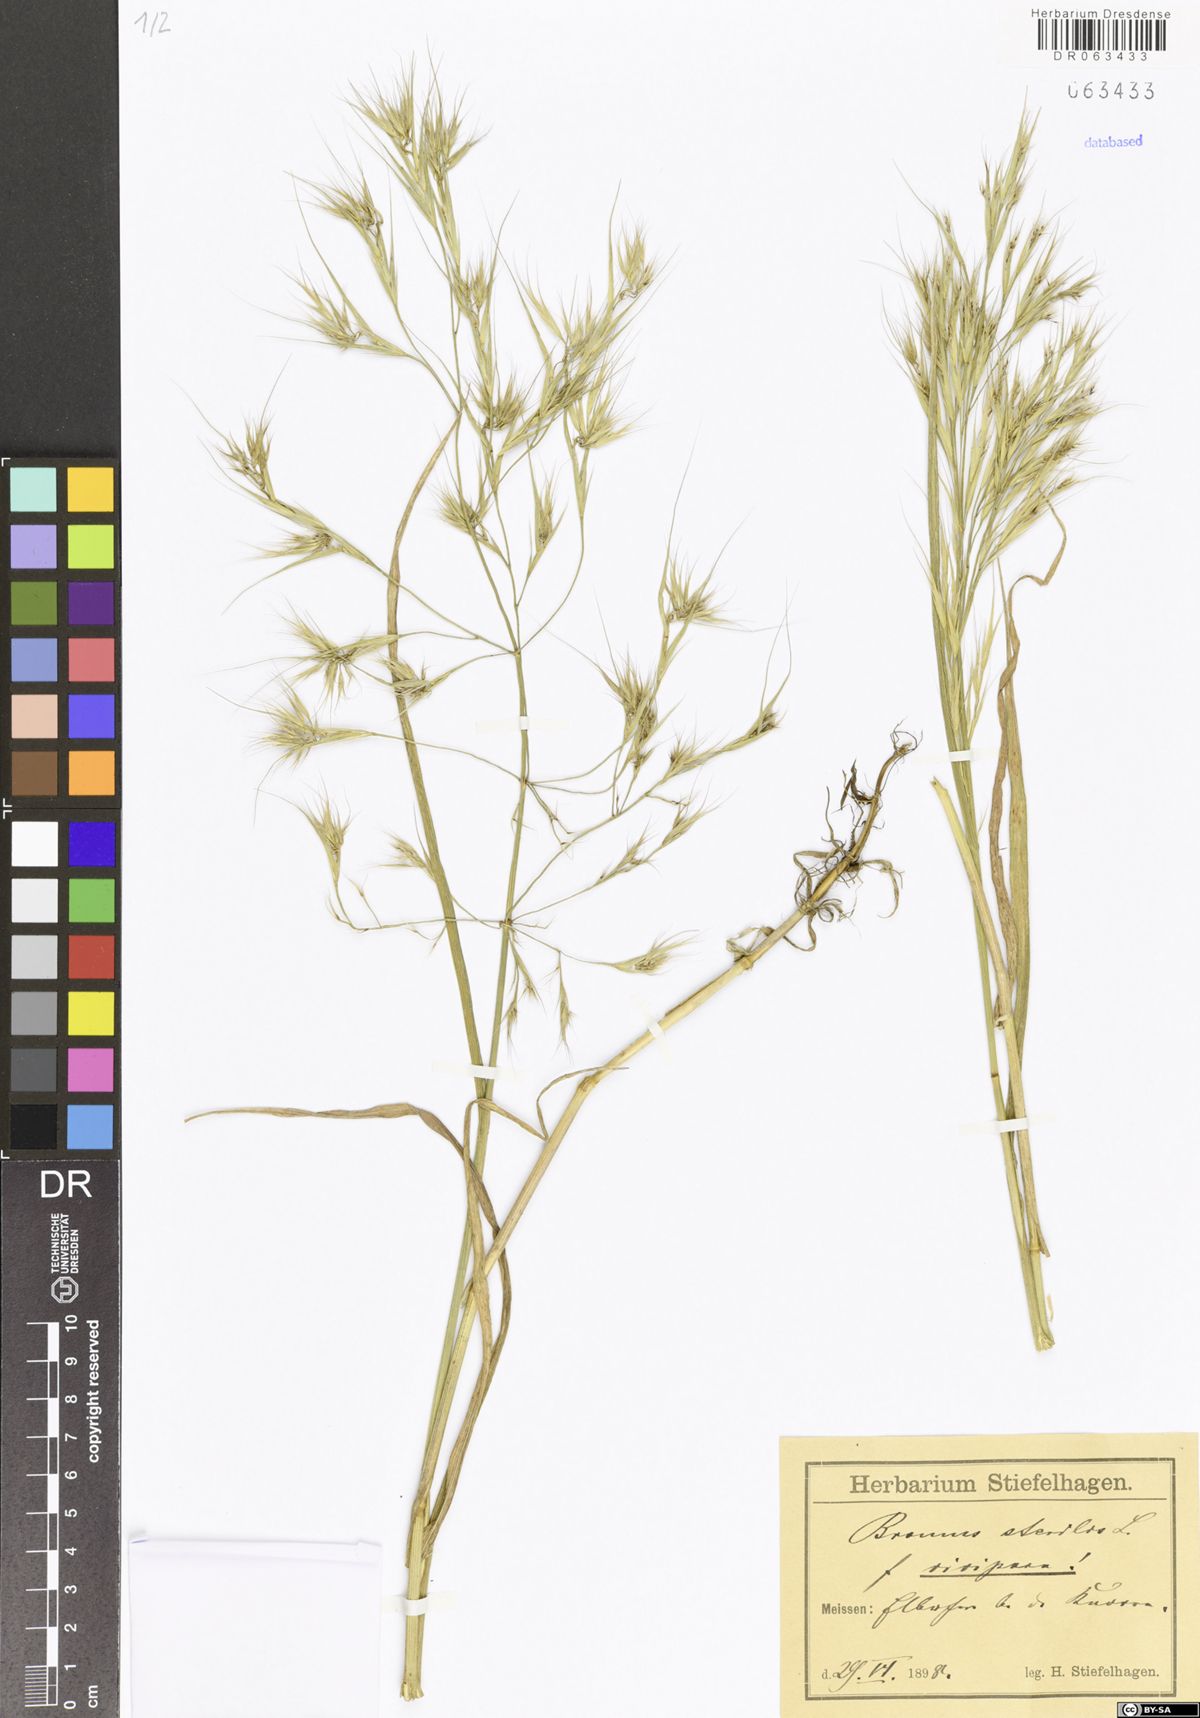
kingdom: Plantae
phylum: Tracheophyta
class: Liliopsida
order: Poales
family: Poaceae
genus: Bromus
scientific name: Bromus sterilis
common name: Poverty brome
